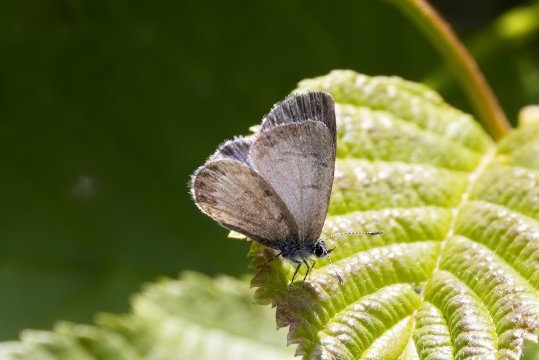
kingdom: Animalia
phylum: Arthropoda
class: Insecta
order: Lepidoptera
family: Lycaenidae
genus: Celastrina
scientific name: Celastrina lucia
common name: Northern Spring Azure
